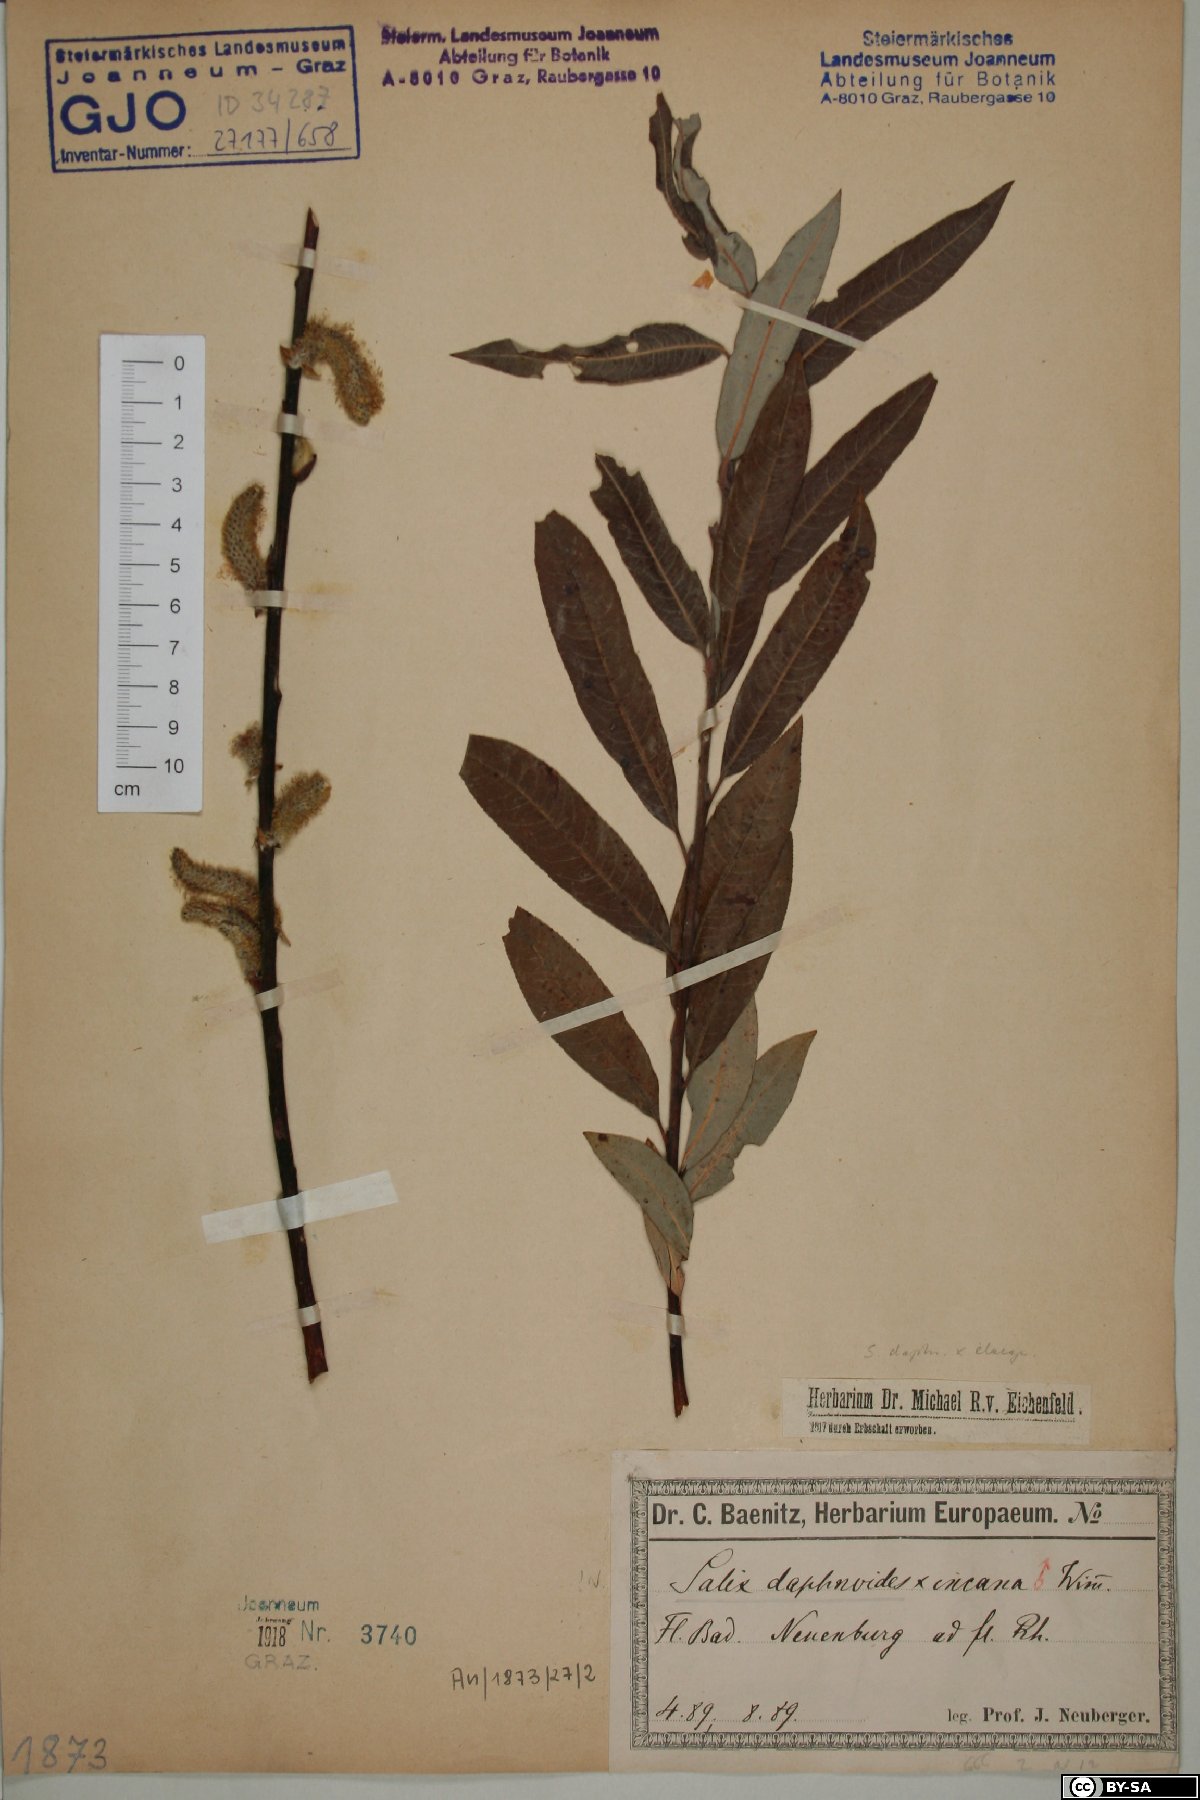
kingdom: Plantae
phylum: Tracheophyta
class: Magnoliopsida
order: Malpighiales
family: Salicaceae
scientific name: Salicaceae
